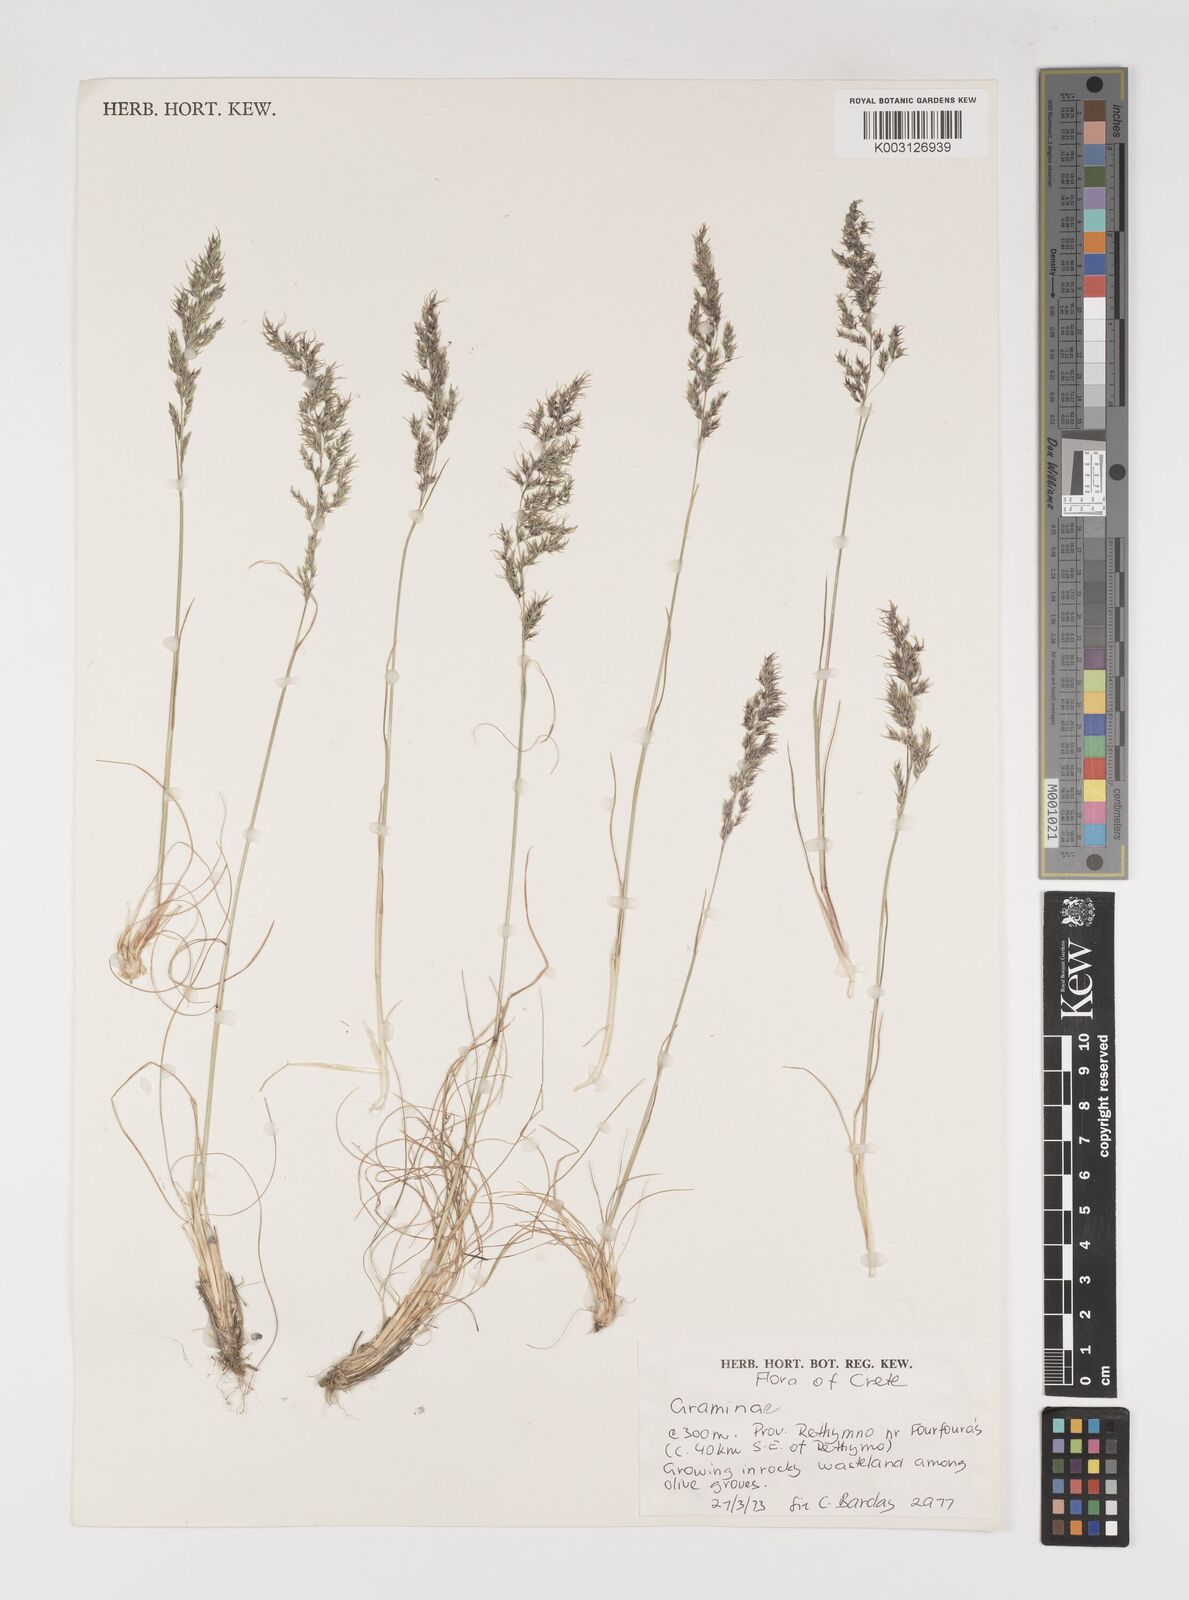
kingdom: Plantae
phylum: Tracheophyta
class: Liliopsida
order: Poales
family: Poaceae
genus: Poa
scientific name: Poa bulbosa
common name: Bulbous bluegrass
